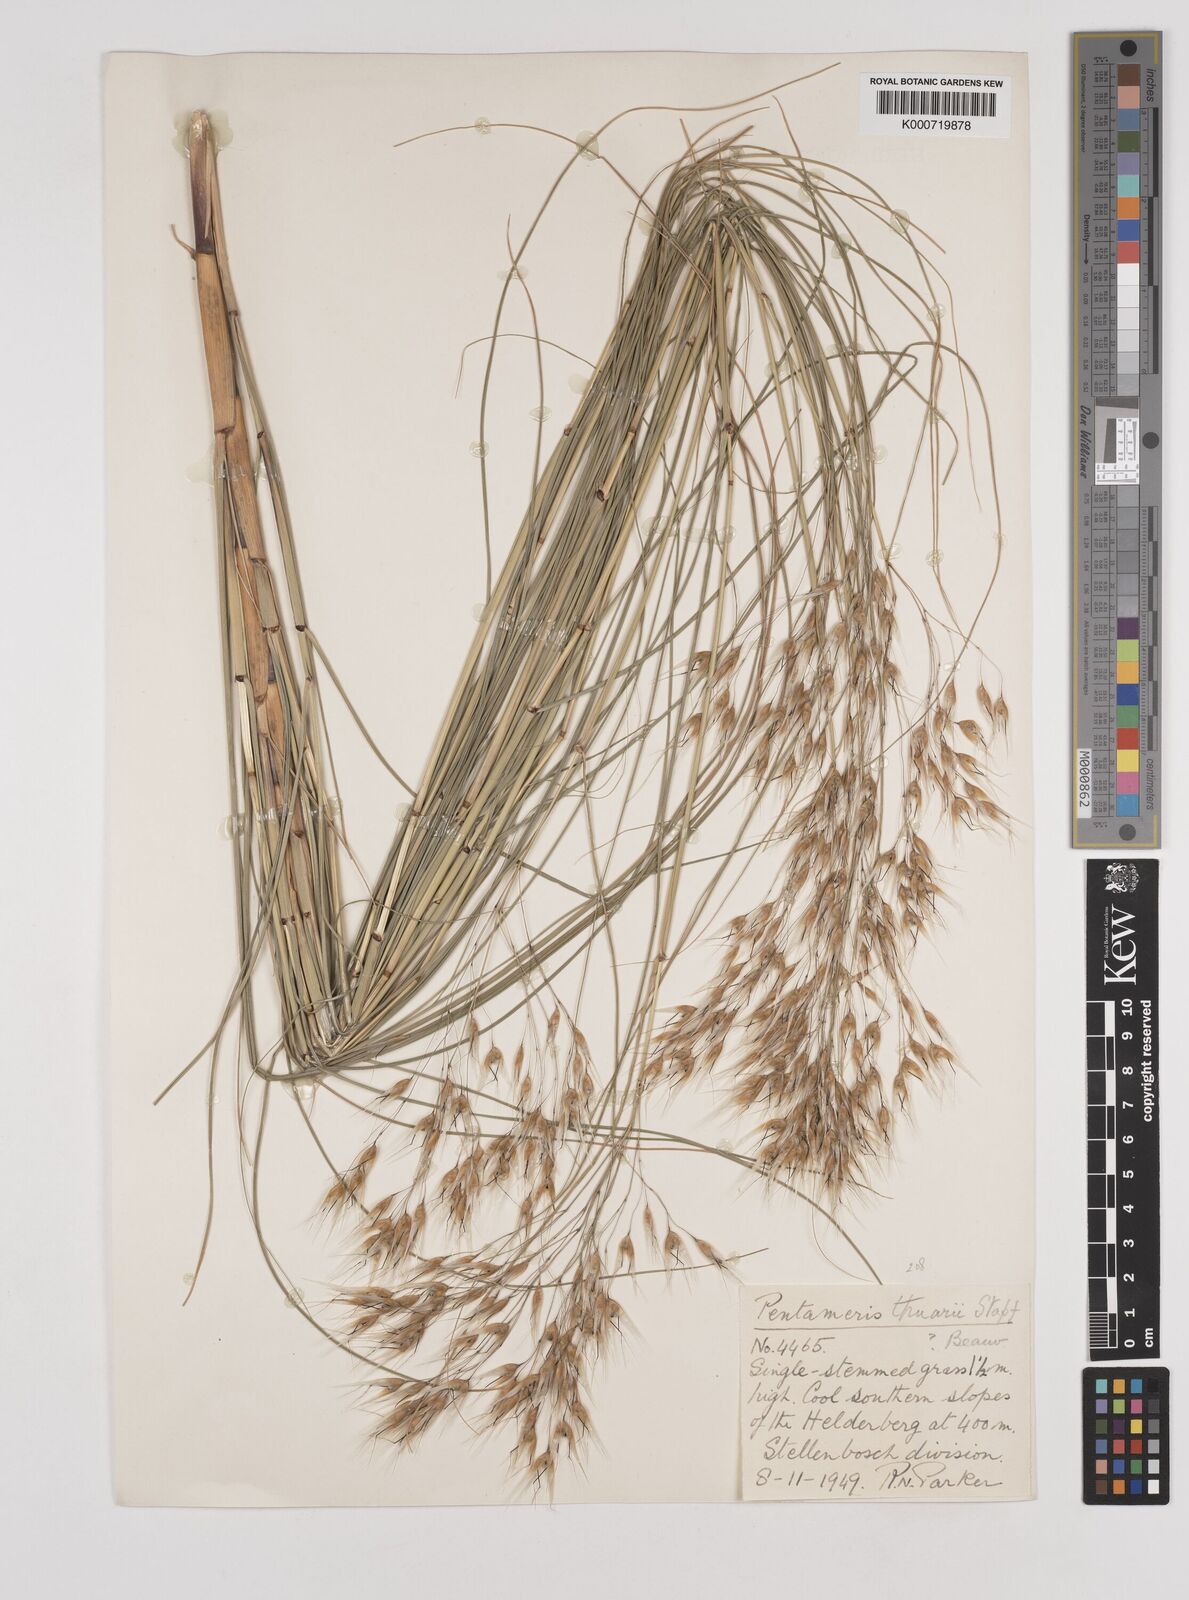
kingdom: Plantae
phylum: Tracheophyta
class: Liliopsida
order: Poales
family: Poaceae
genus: Pentameris
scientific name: Pentameris thuarii
